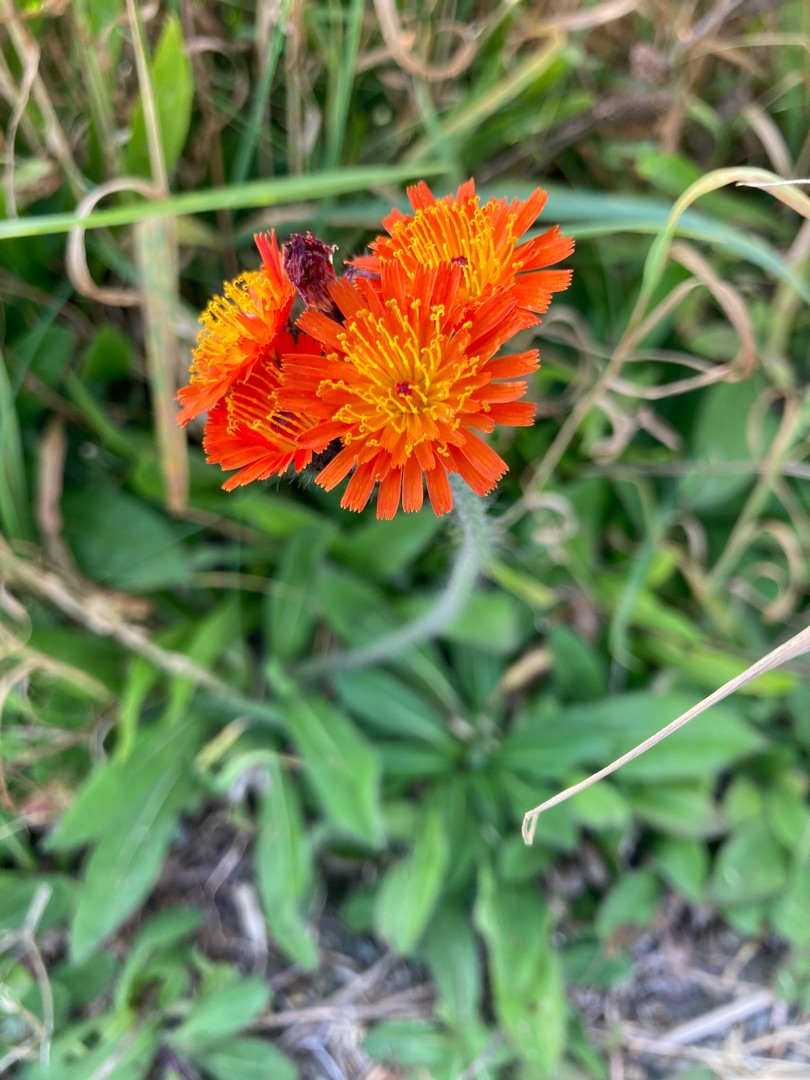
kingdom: Plantae
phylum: Tracheophyta
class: Magnoliopsida
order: Asterales
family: Asteraceae
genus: Pilosella
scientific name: Pilosella aurantiaca
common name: Pomerans-høgeurt
